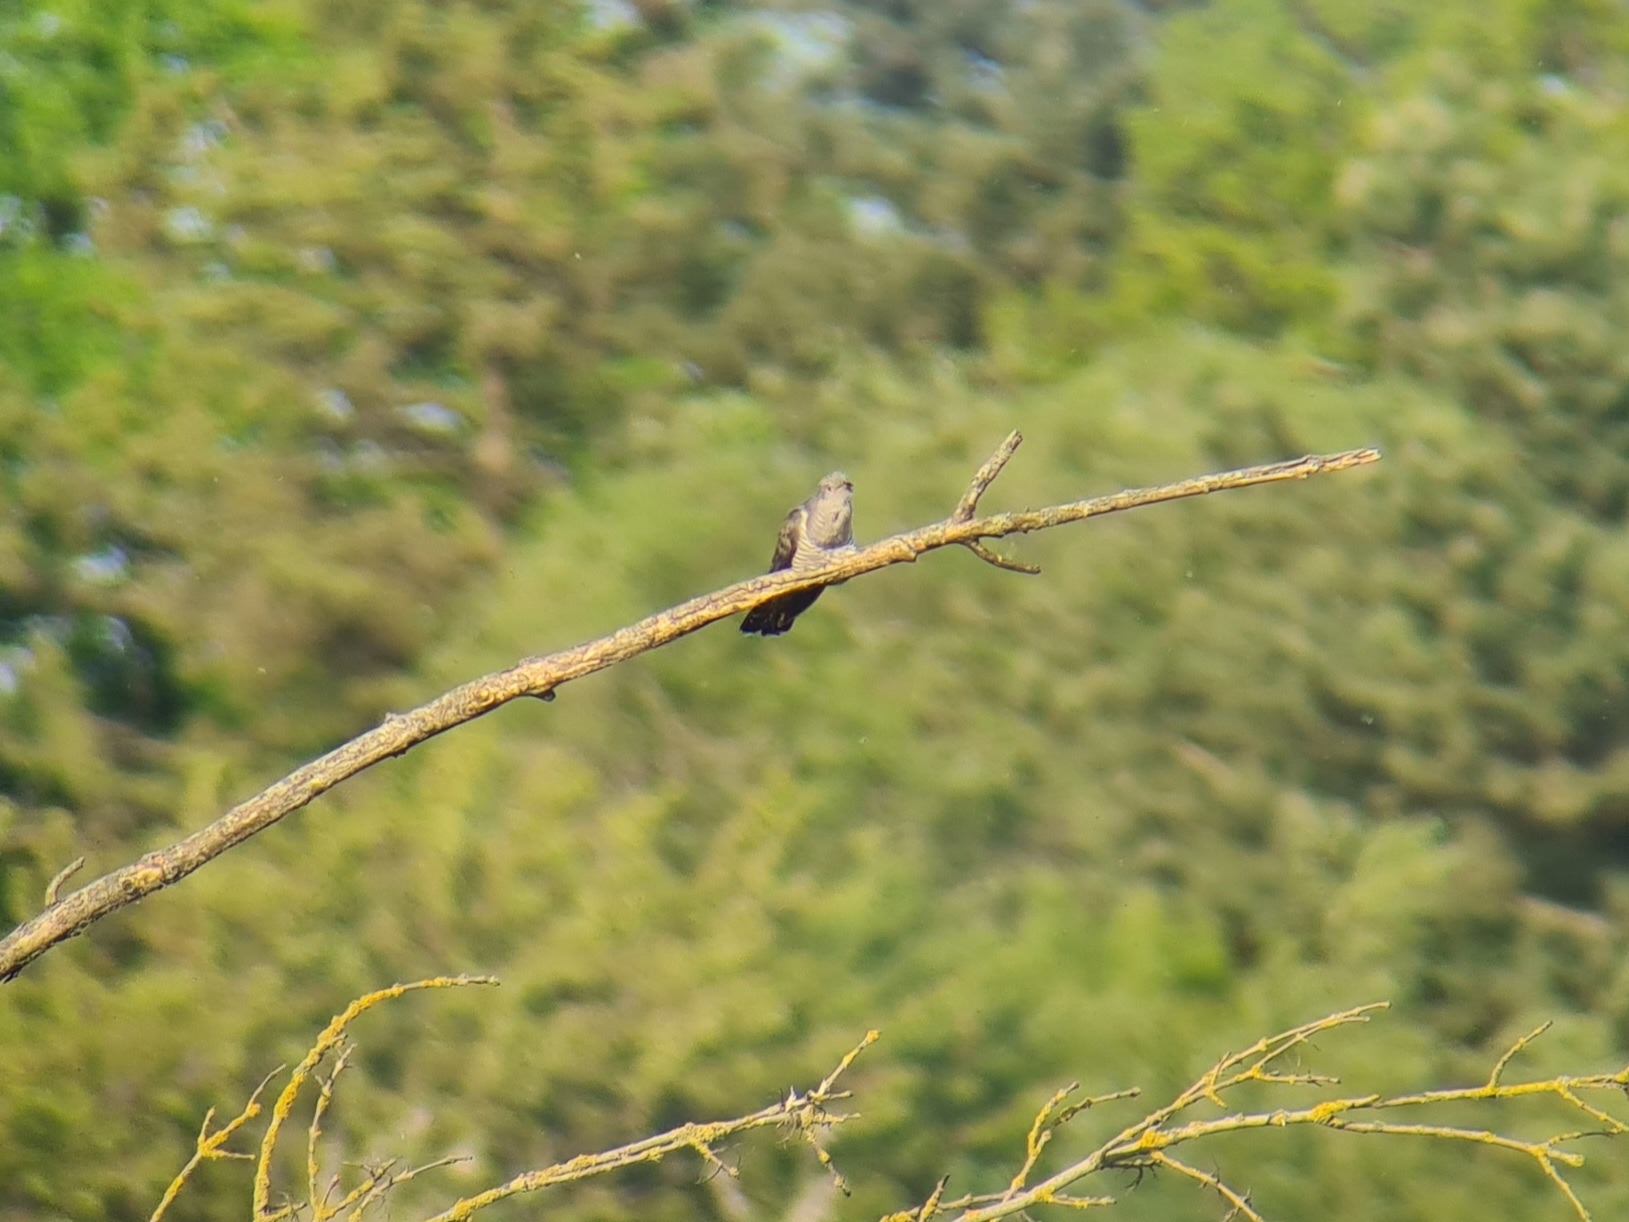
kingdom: Animalia
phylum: Chordata
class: Aves
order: Cuculiformes
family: Cuculidae
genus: Cuculus
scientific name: Cuculus canorus
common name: Gøg
